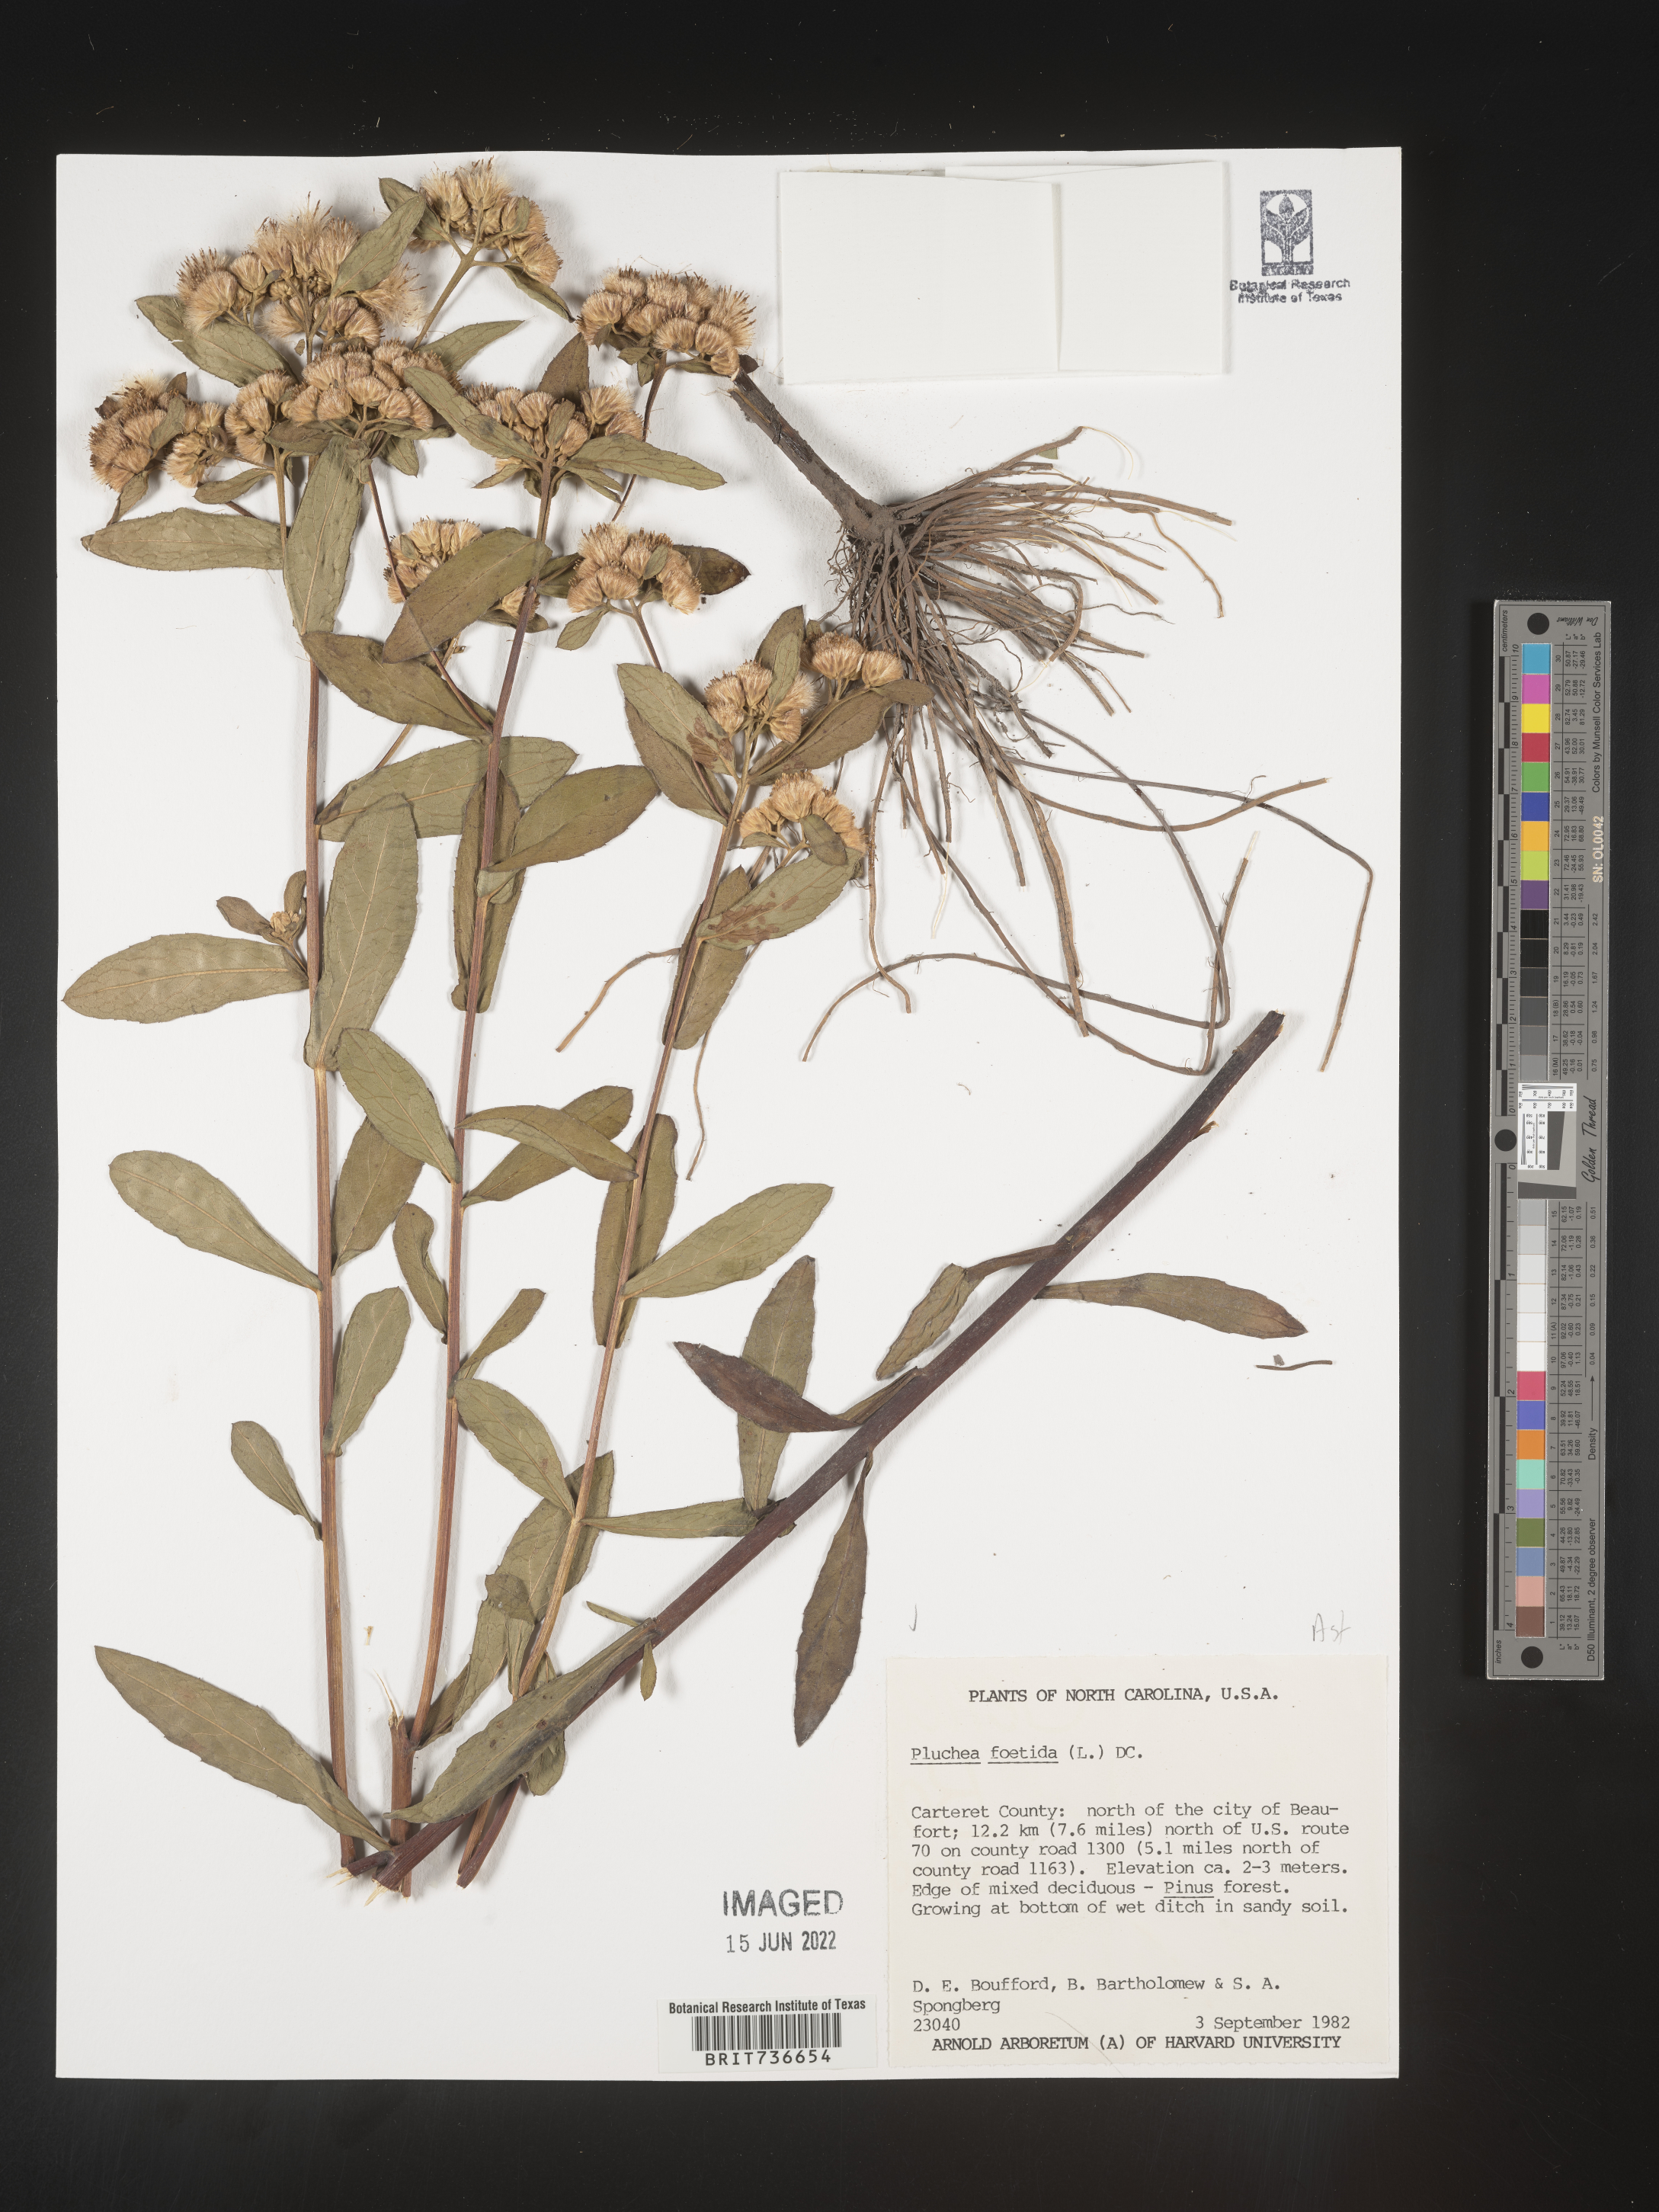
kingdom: Plantae
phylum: Tracheophyta
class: Magnoliopsida
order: Asterales
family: Asteraceae
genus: Pluchea
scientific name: Pluchea foetida
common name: Stinking camphorweed
